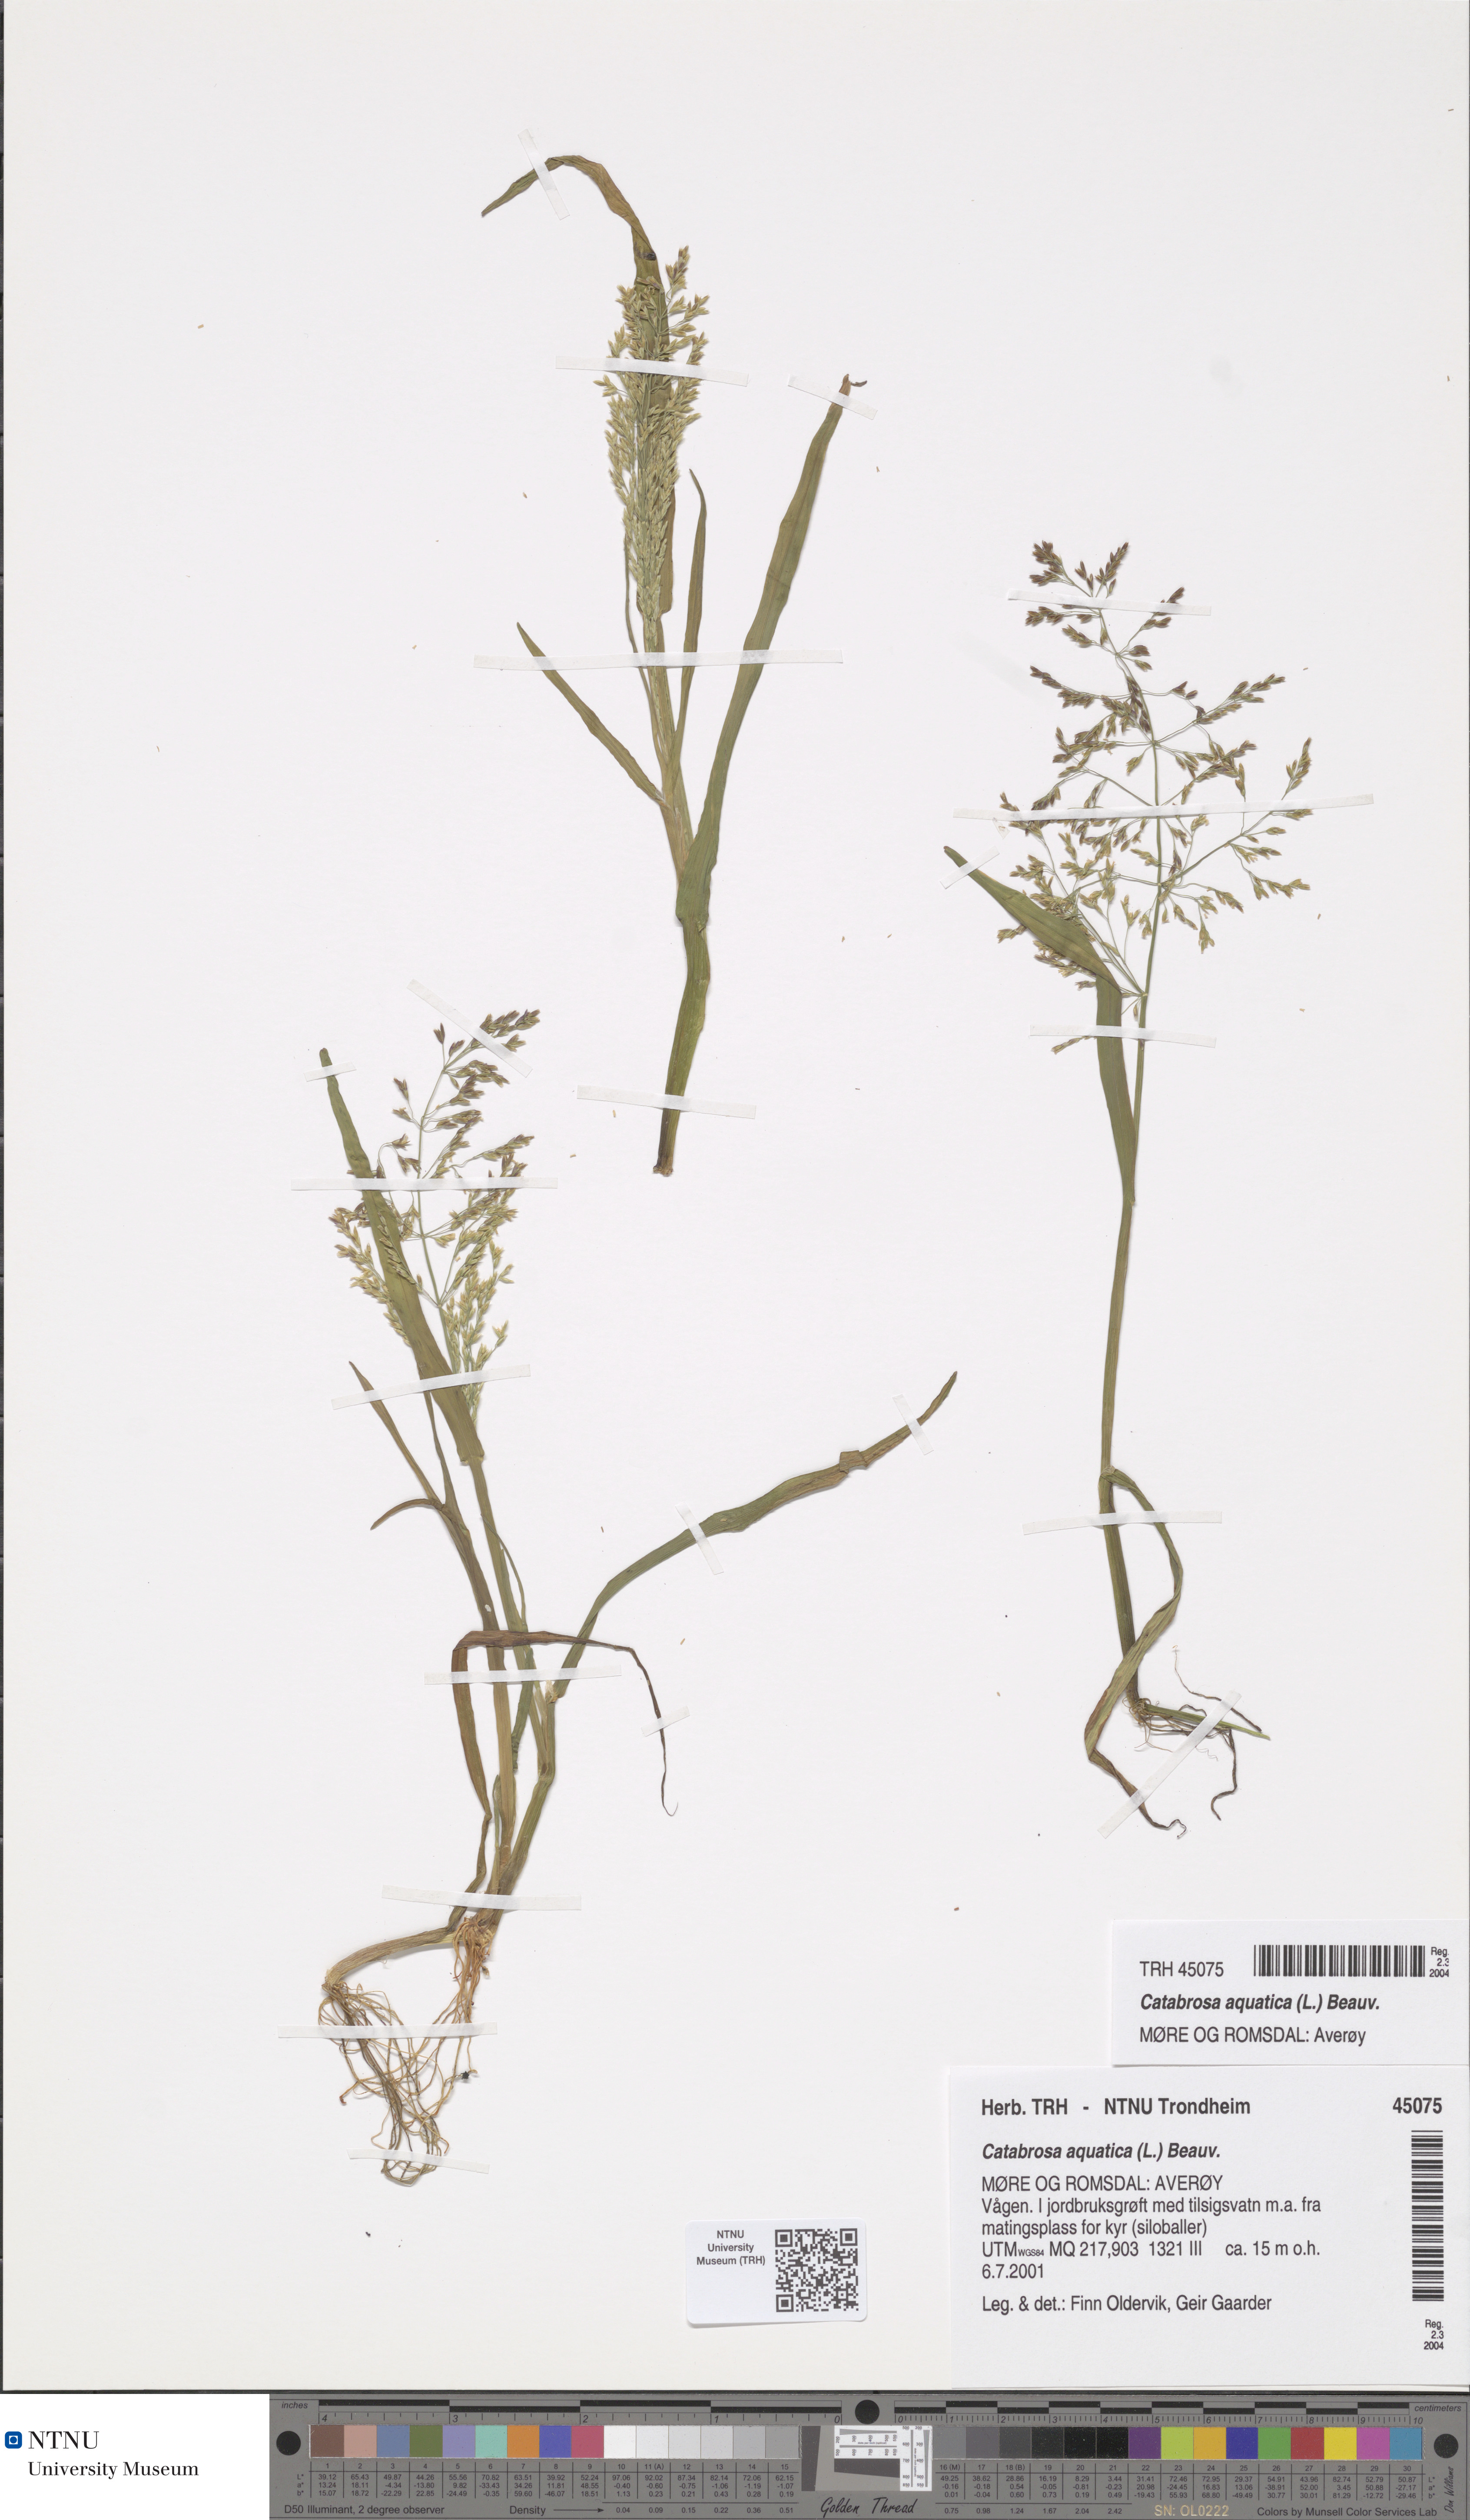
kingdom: Plantae
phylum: Tracheophyta
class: Liliopsida
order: Poales
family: Poaceae
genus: Catabrosa
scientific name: Catabrosa aquatica
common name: Whorl-grass
